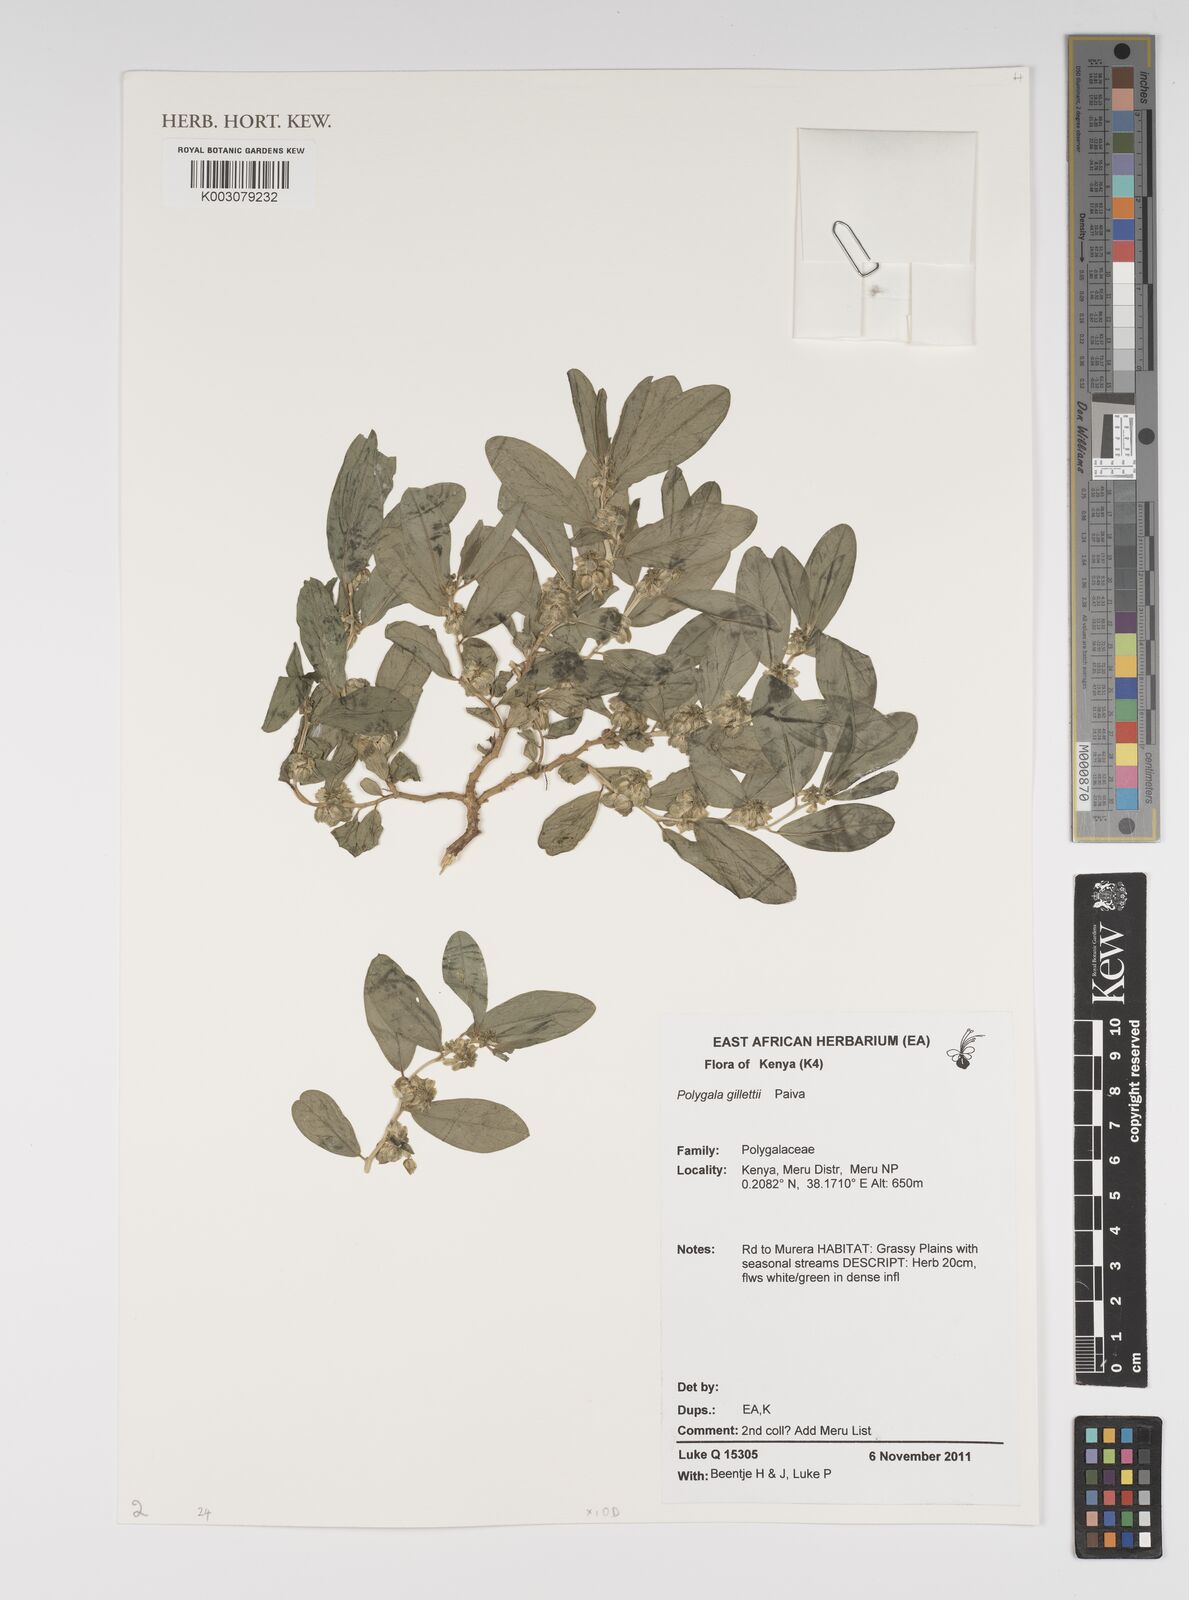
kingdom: Plantae
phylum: Tracheophyta
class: Magnoliopsida
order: Fabales
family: Polygalaceae
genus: Polygala
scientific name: Polygala sadebeckiana
